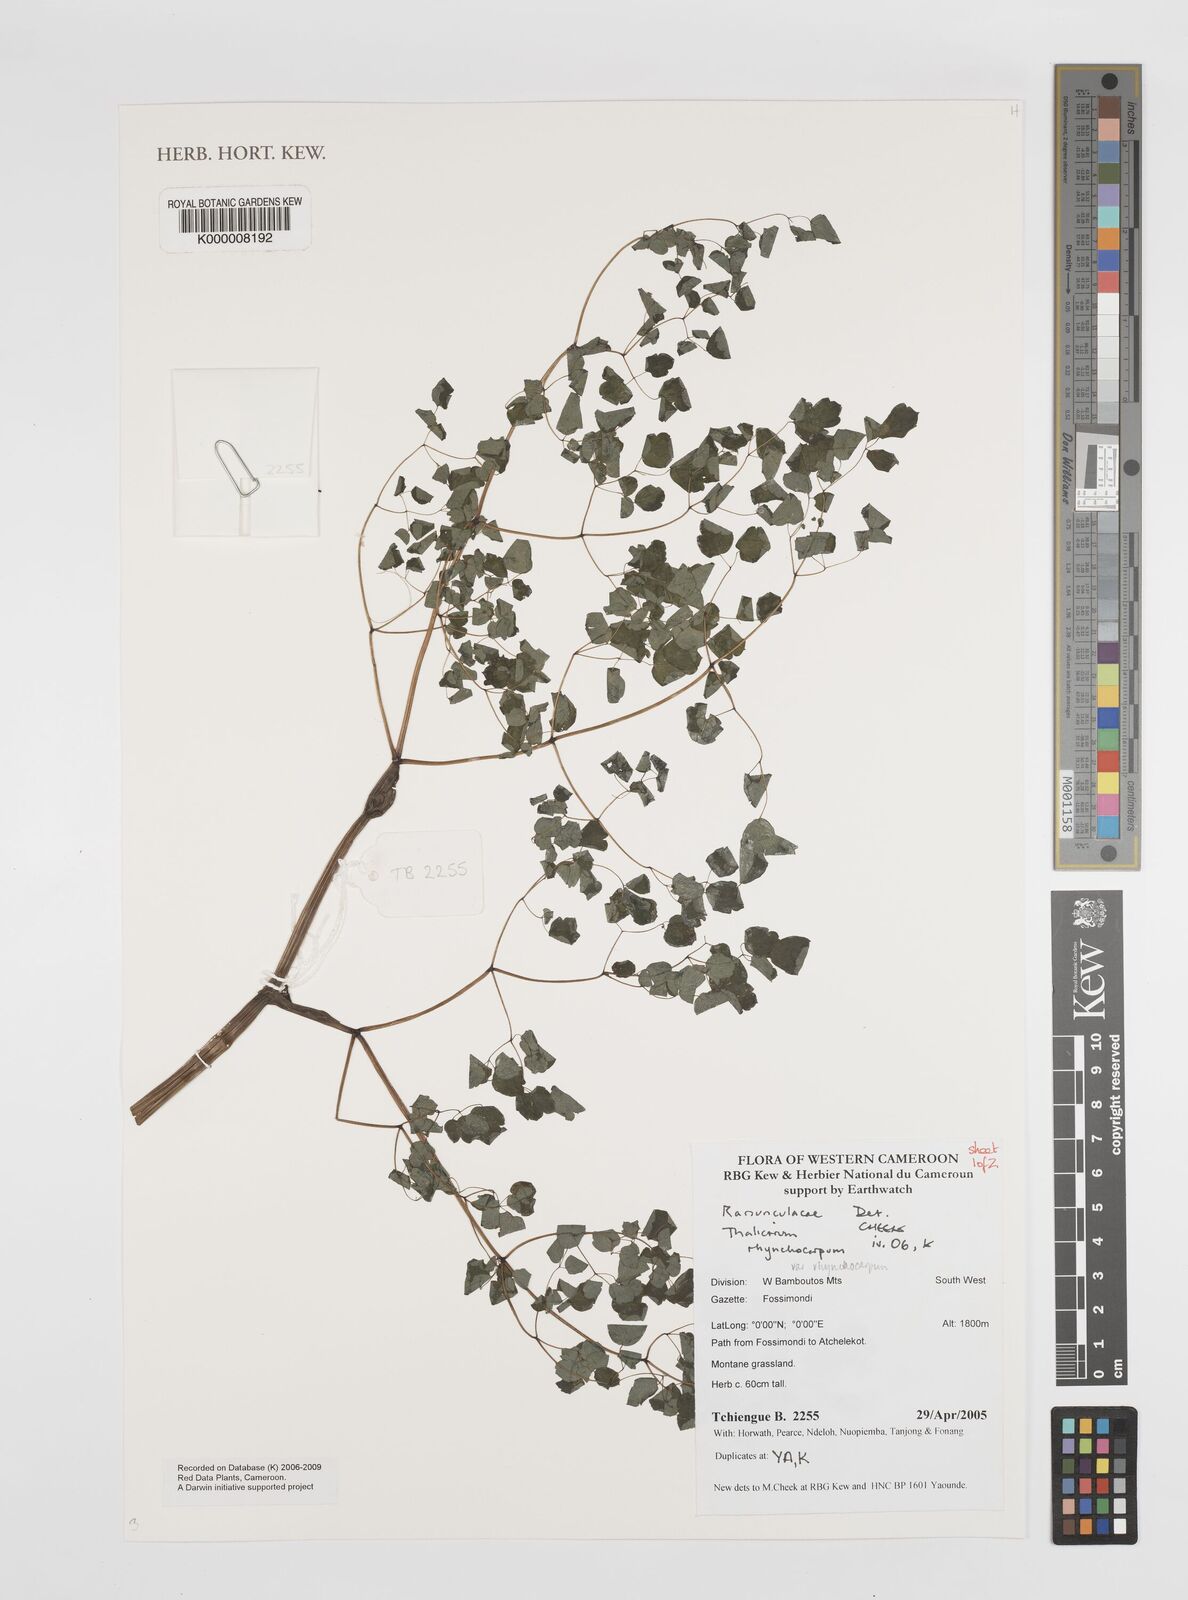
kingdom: Plantae
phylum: Tracheophyta
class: Magnoliopsida
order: Ranunculales
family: Ranunculaceae
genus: Thalictrum
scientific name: Thalictrum rhynchocarpum
